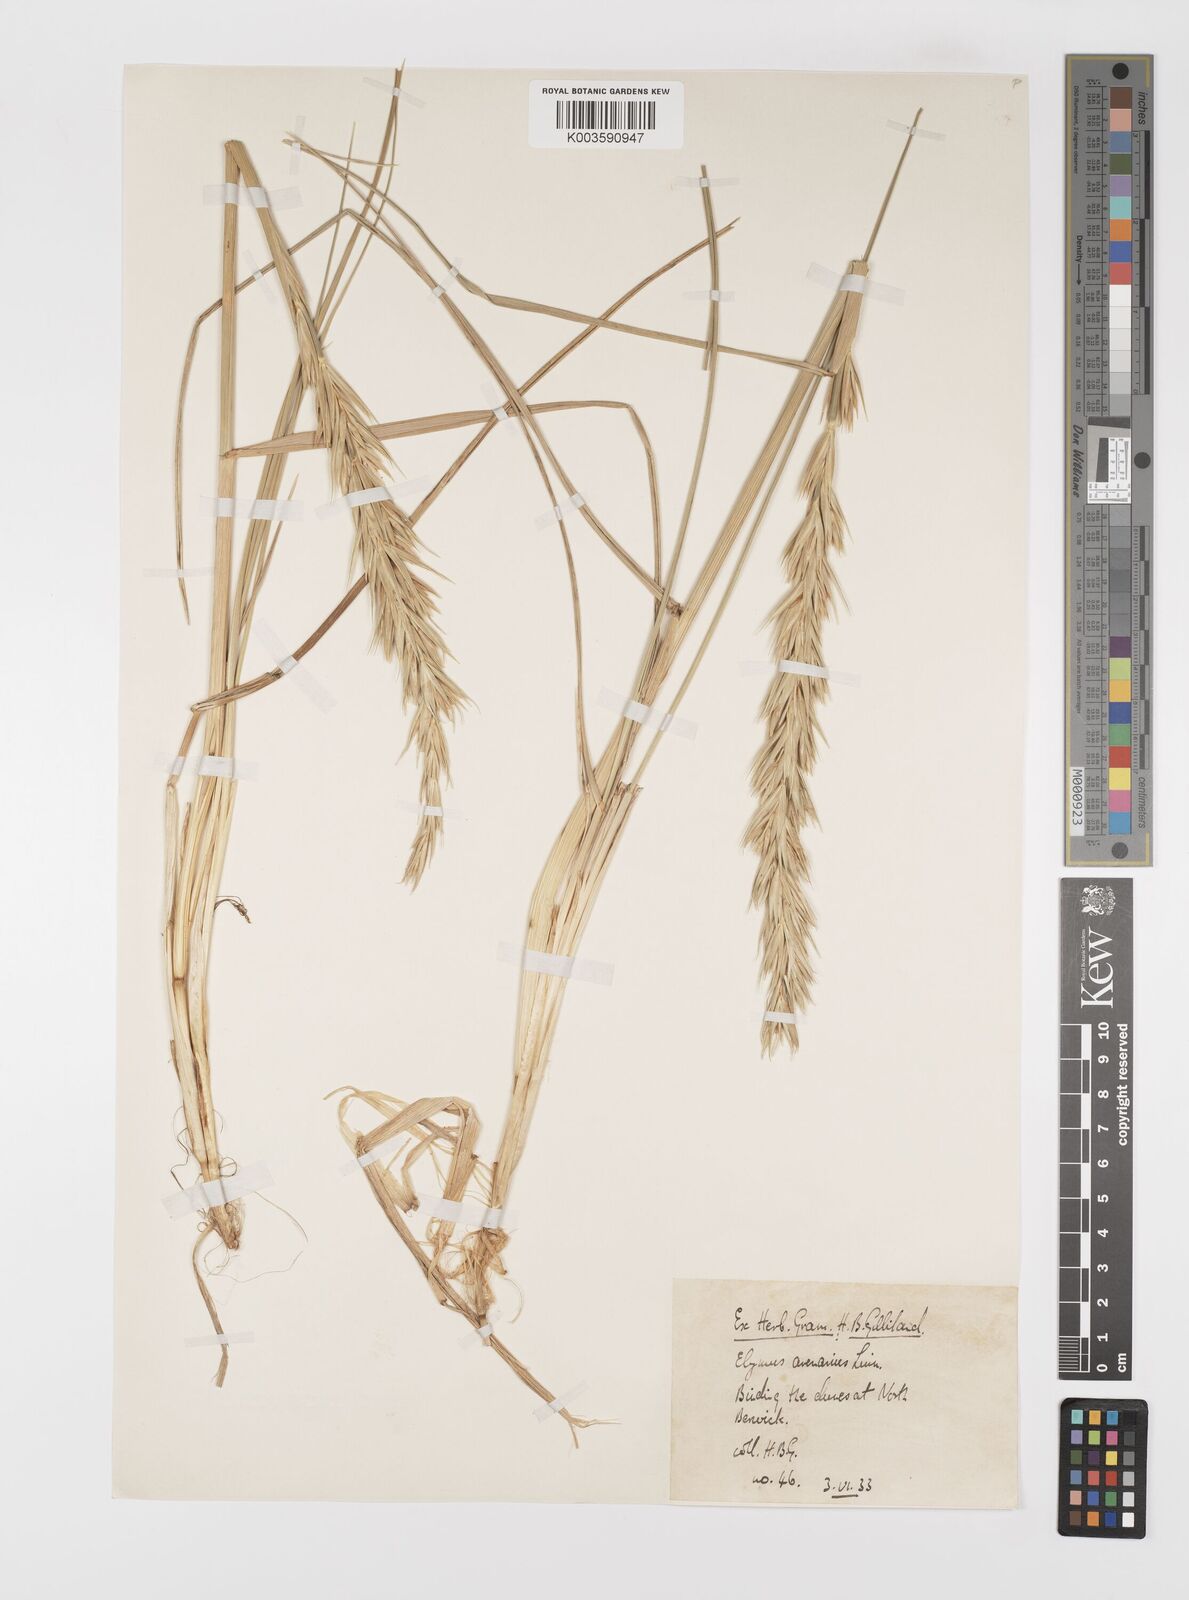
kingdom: Plantae
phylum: Tracheophyta
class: Liliopsida
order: Poales
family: Poaceae
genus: Leymus
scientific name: Leymus arenarius
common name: Lyme-grass
